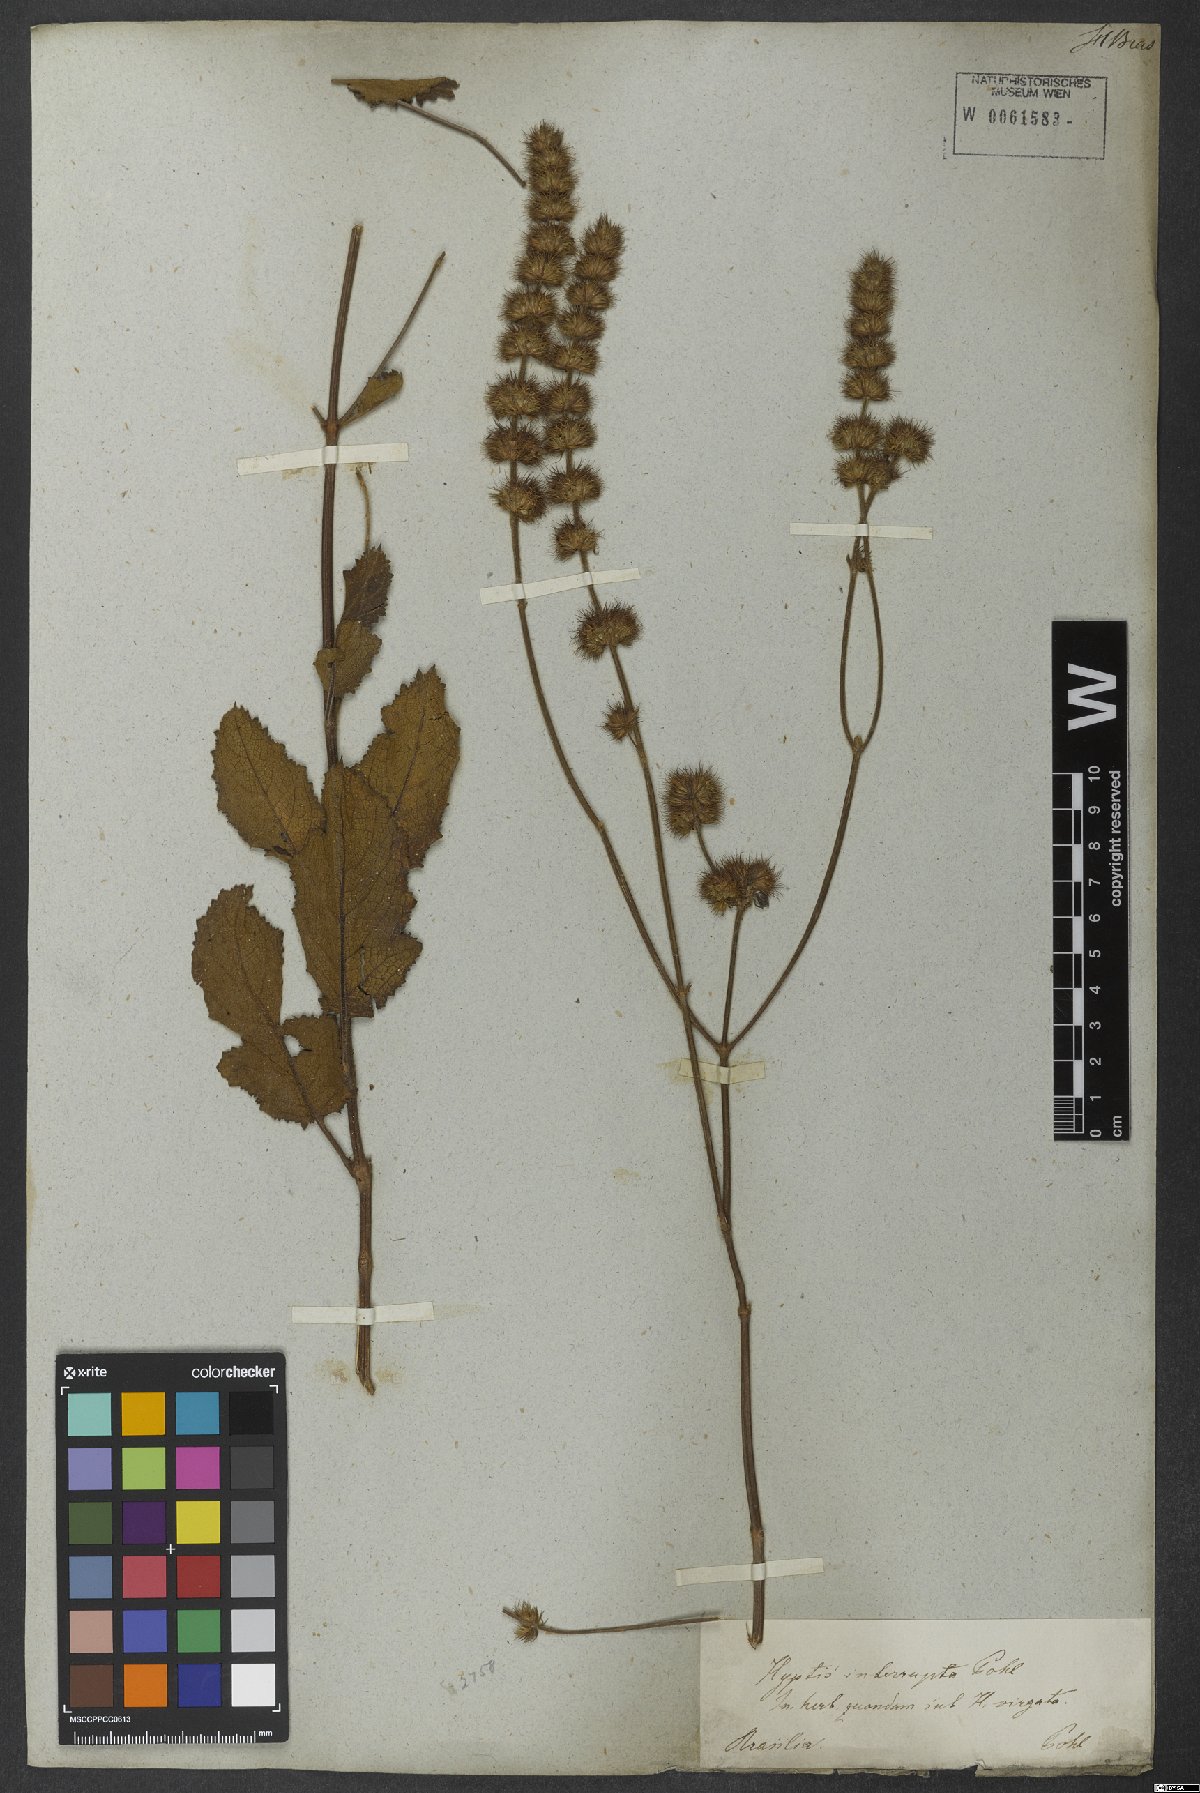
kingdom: Plantae
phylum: Tracheophyta
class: Magnoliopsida
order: Lamiales
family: Lamiaceae
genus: Gymneia
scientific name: Gymneia interrupta
